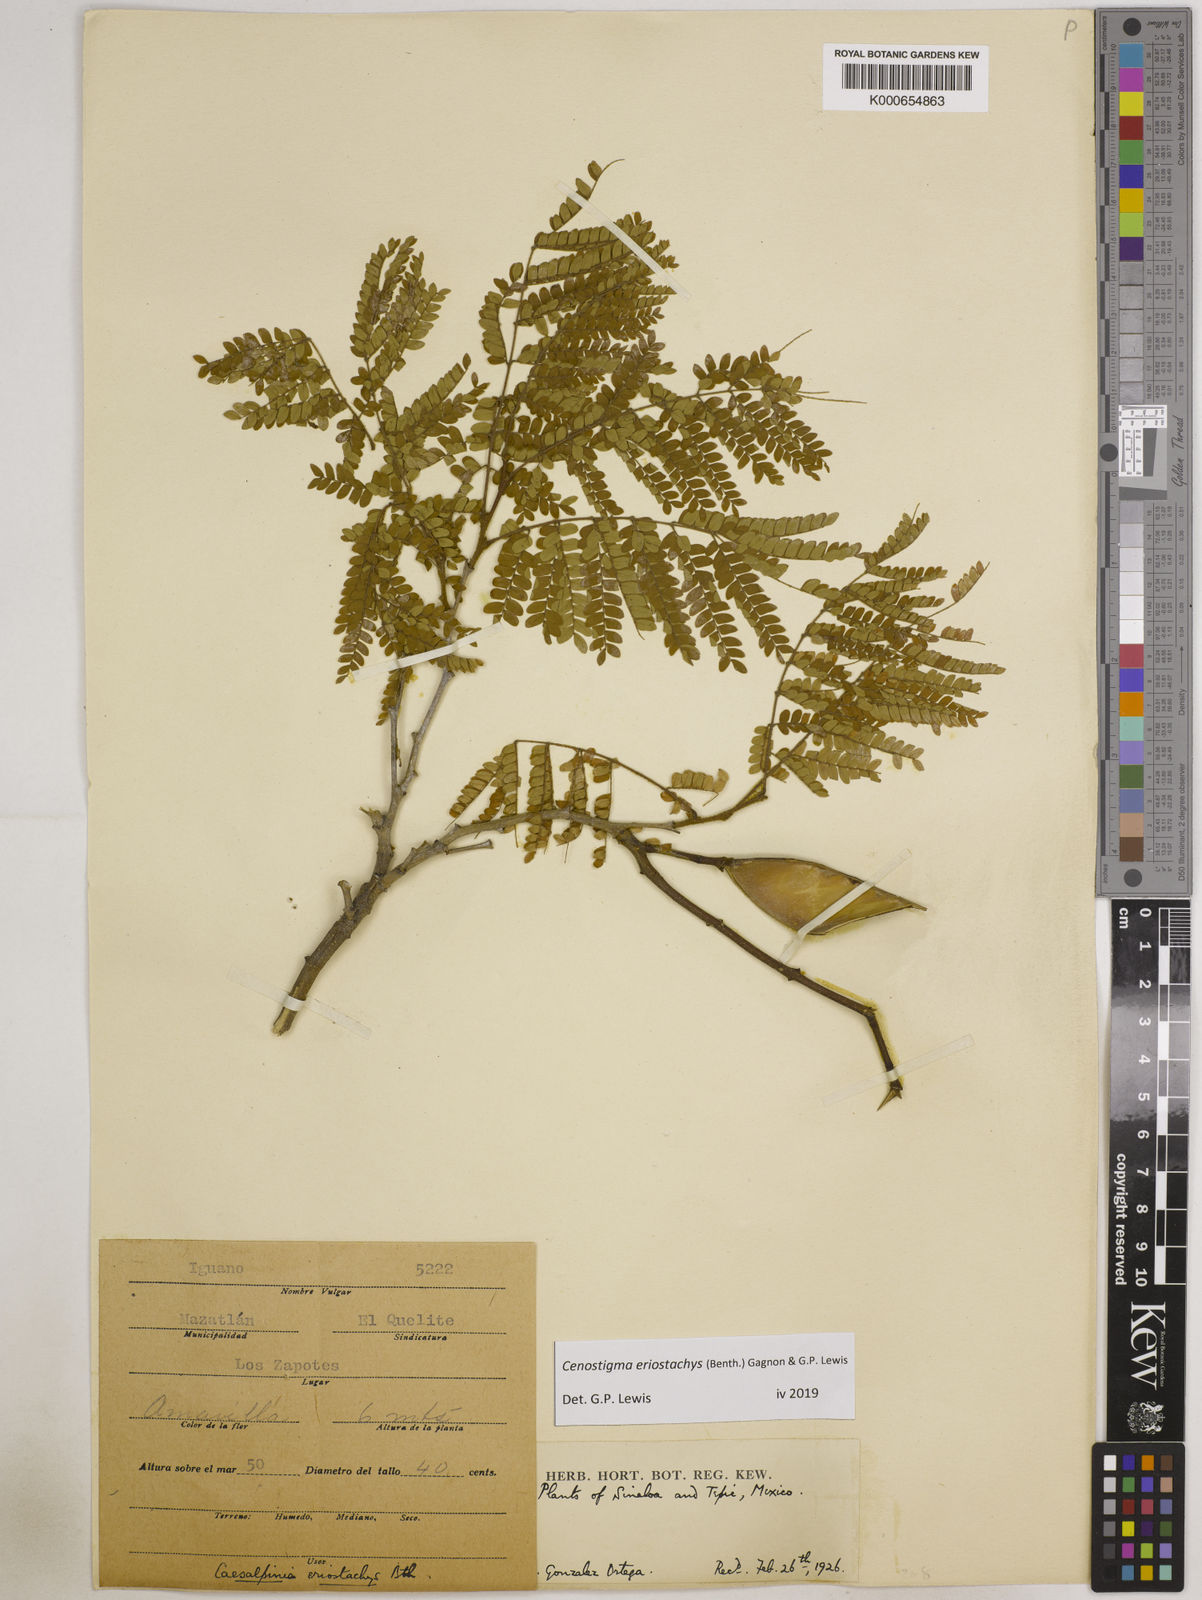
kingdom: Plantae
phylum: Tracheophyta
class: Magnoliopsida
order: Fabales
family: Fabaceae
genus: Cenostigma
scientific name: Cenostigma eriostachys
